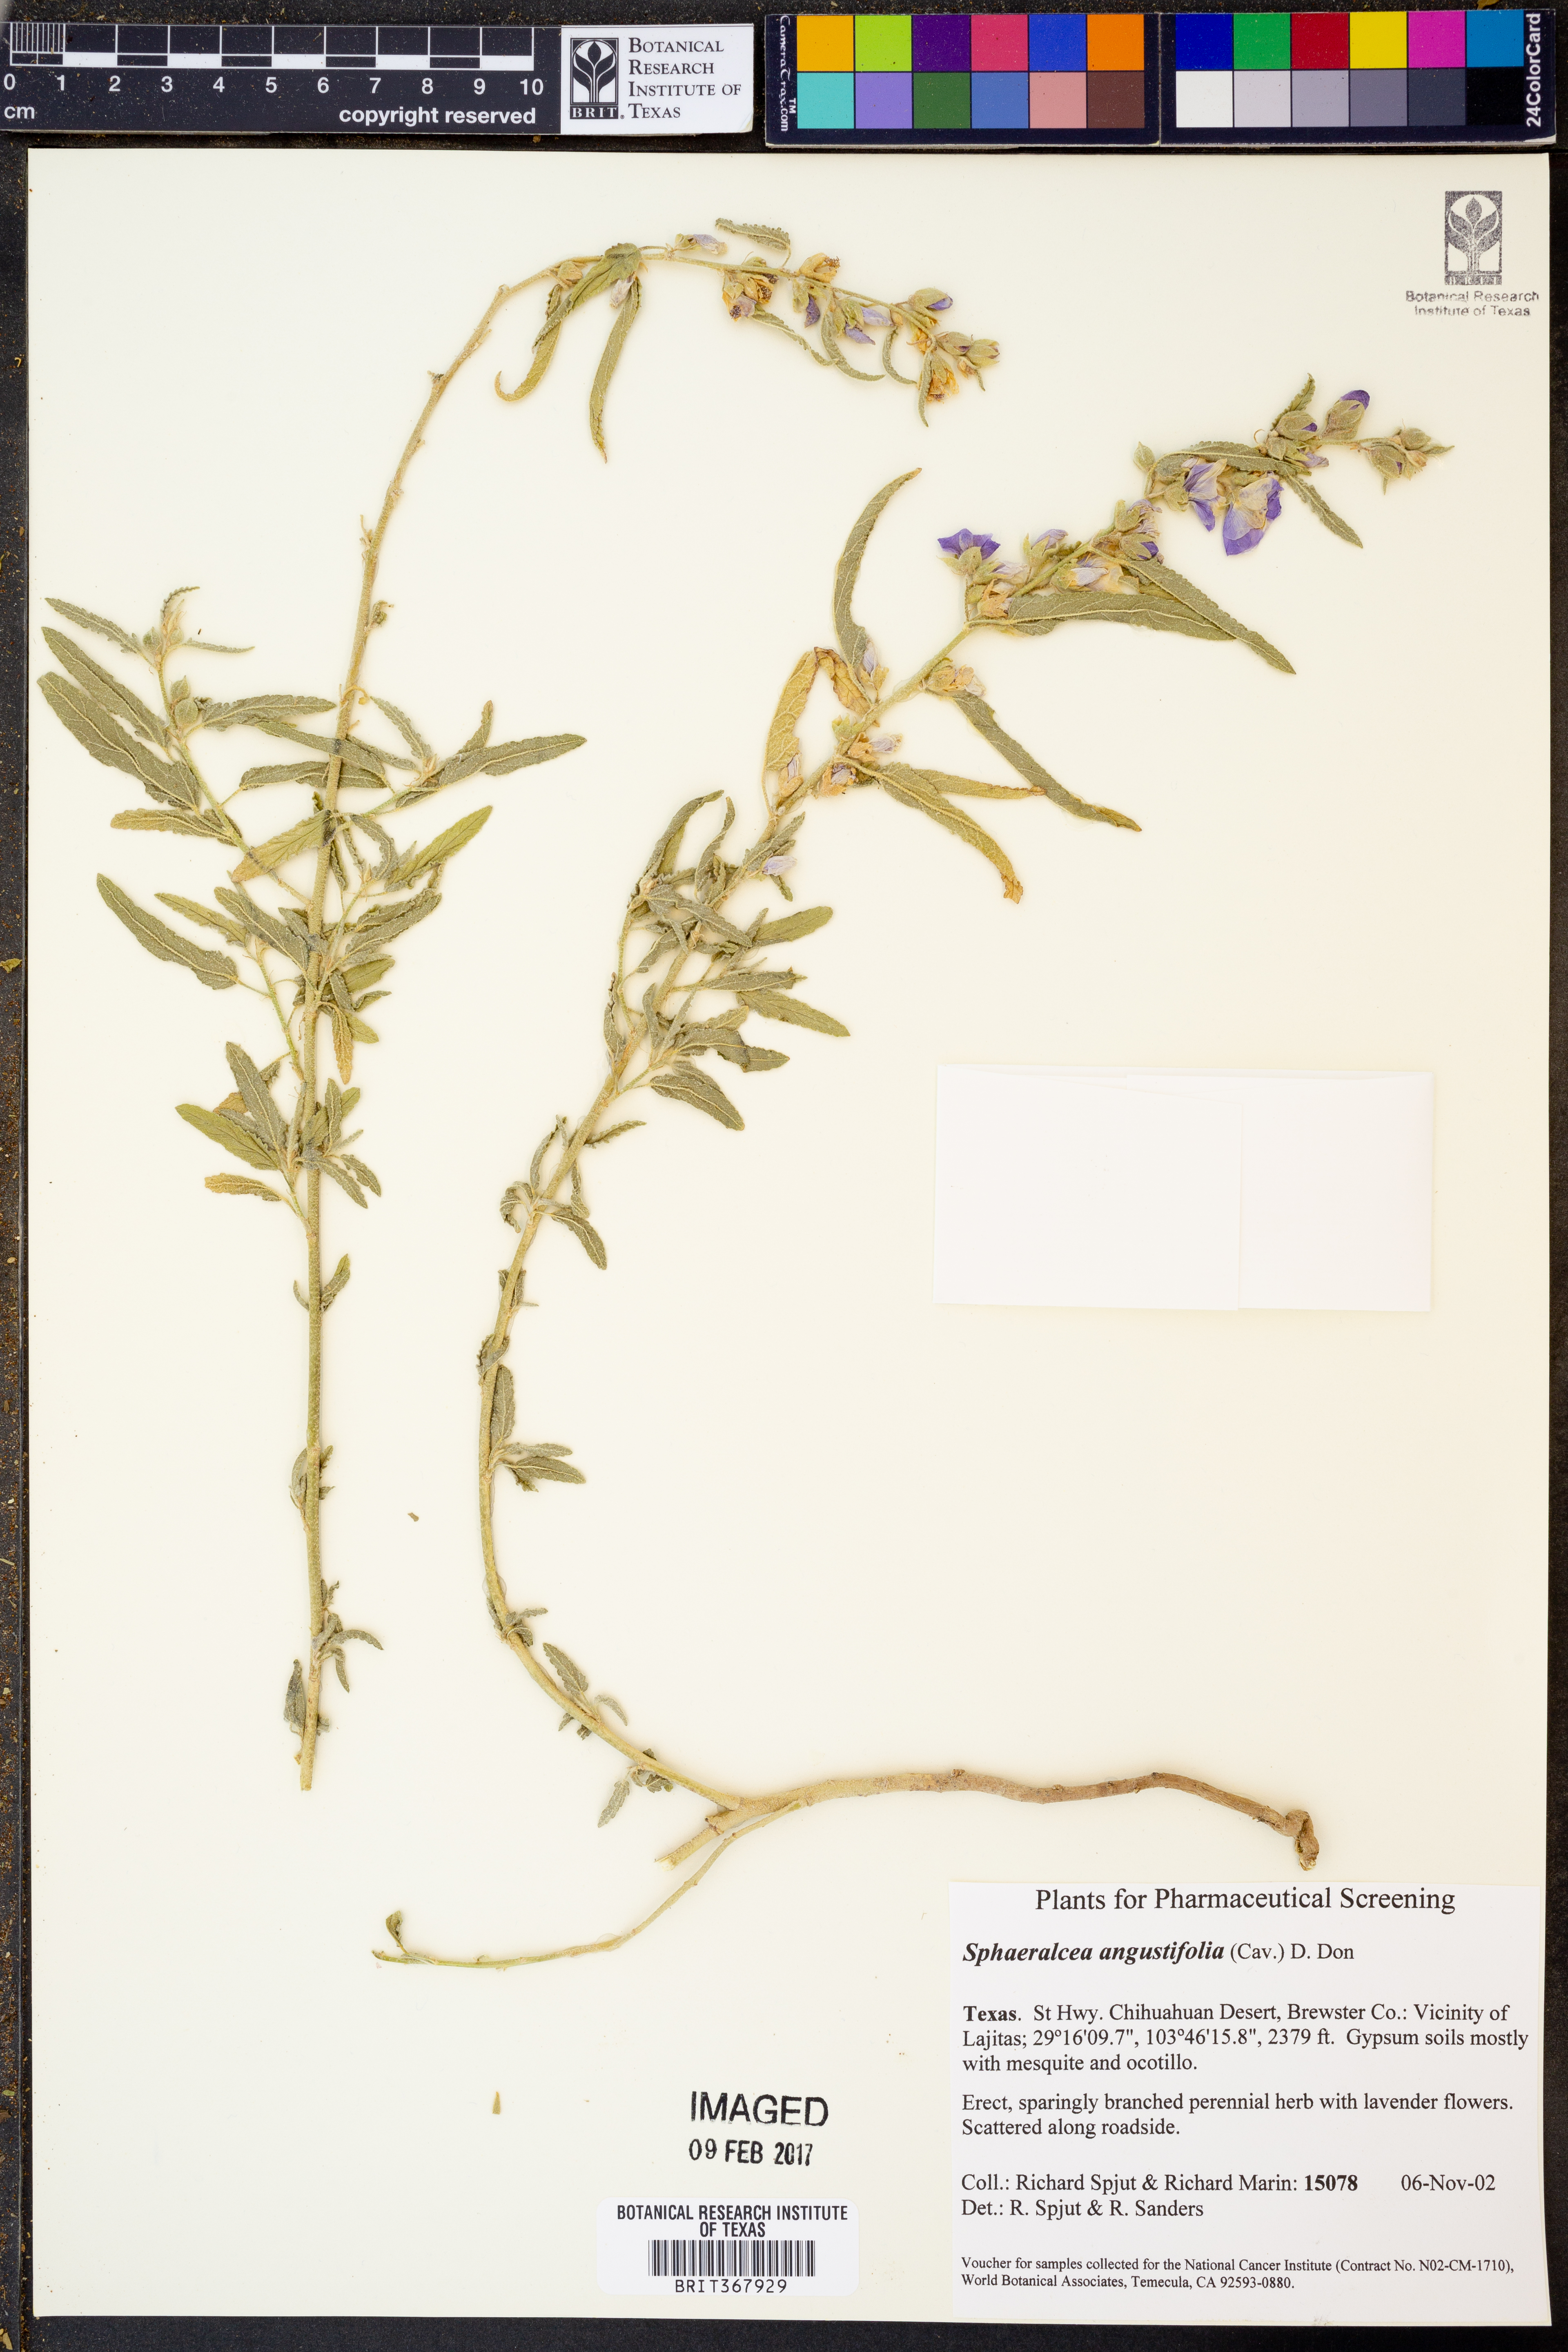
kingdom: Plantae
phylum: Tracheophyta
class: Magnoliopsida
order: Malvales
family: Malvaceae
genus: Sphaeralcea
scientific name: Sphaeralcea angustifolia
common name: Copper globe-mallow
